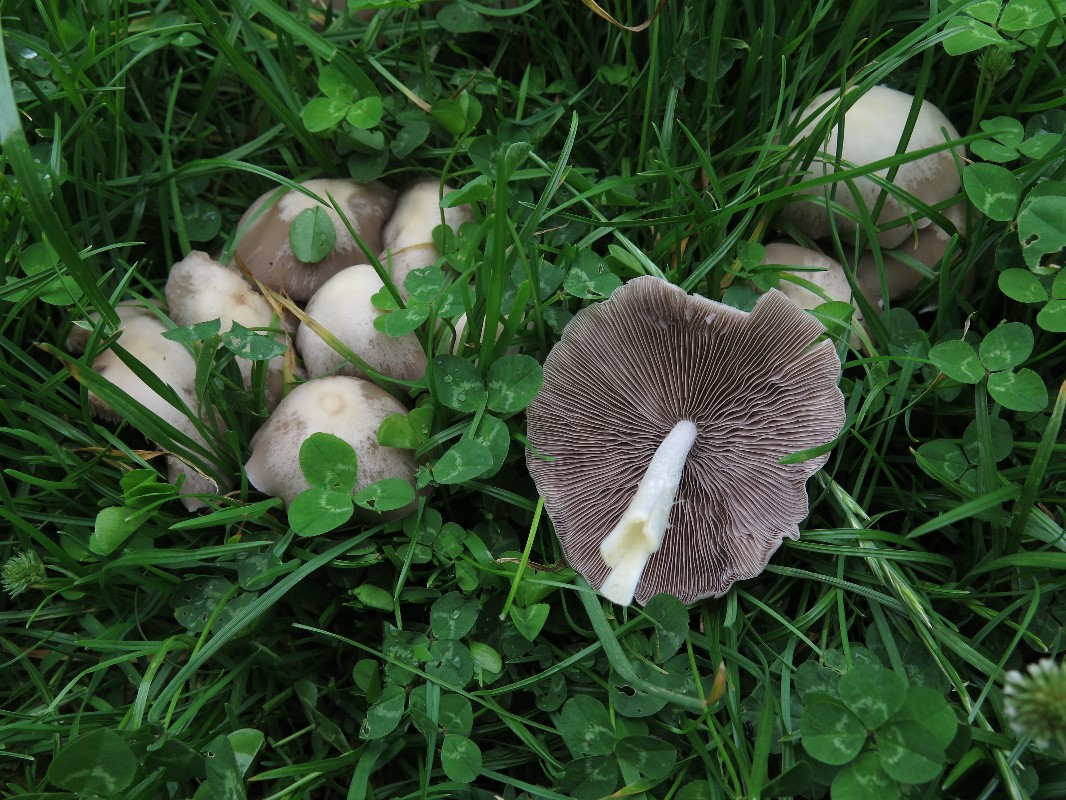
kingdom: Fungi
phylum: Basidiomycota
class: Agaricomycetes
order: Agaricales
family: Psathyrellaceae
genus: Candolleomyces
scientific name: Candolleomyces candolleanus
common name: Candolles mørkhat
